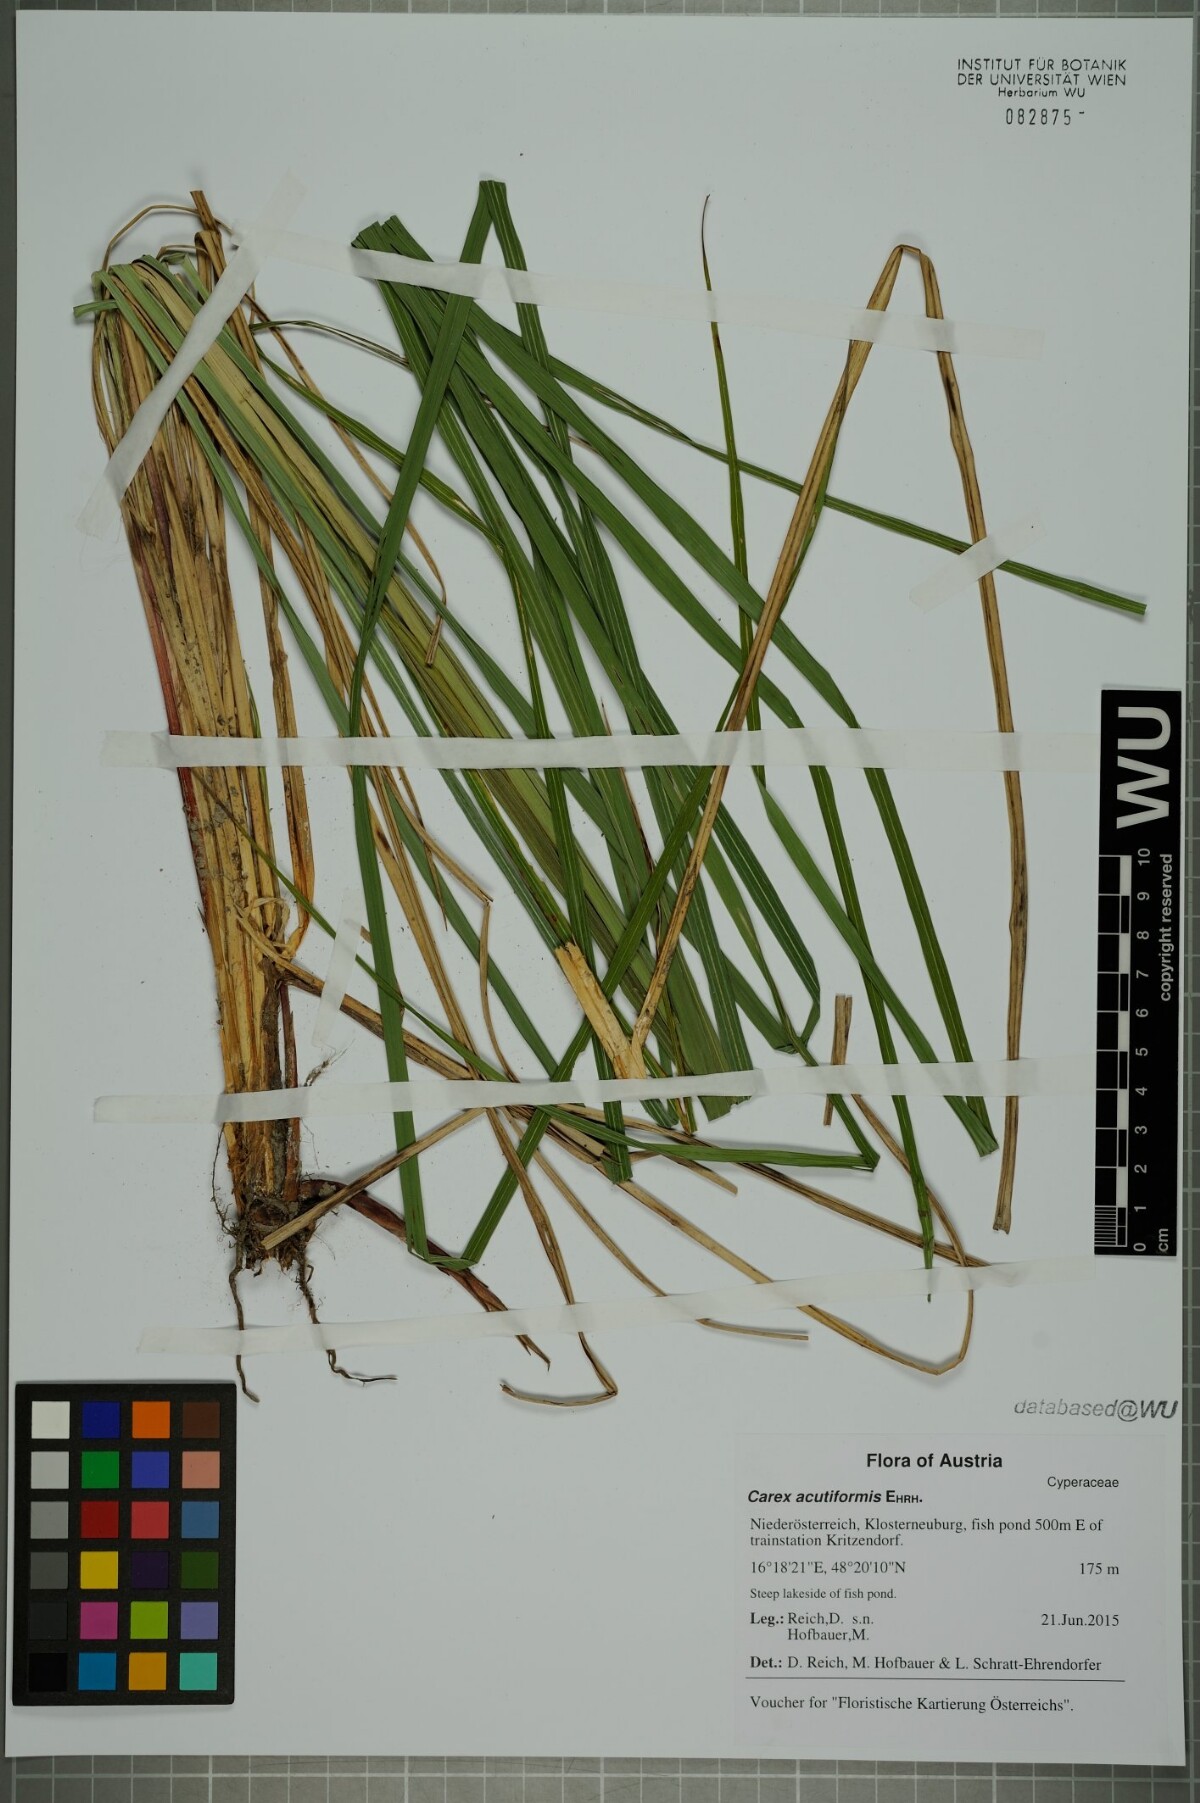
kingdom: Plantae
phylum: Tracheophyta
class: Liliopsida
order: Poales
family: Cyperaceae
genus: Carex
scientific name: Carex acutiformis
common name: Lesser pond-sedge
